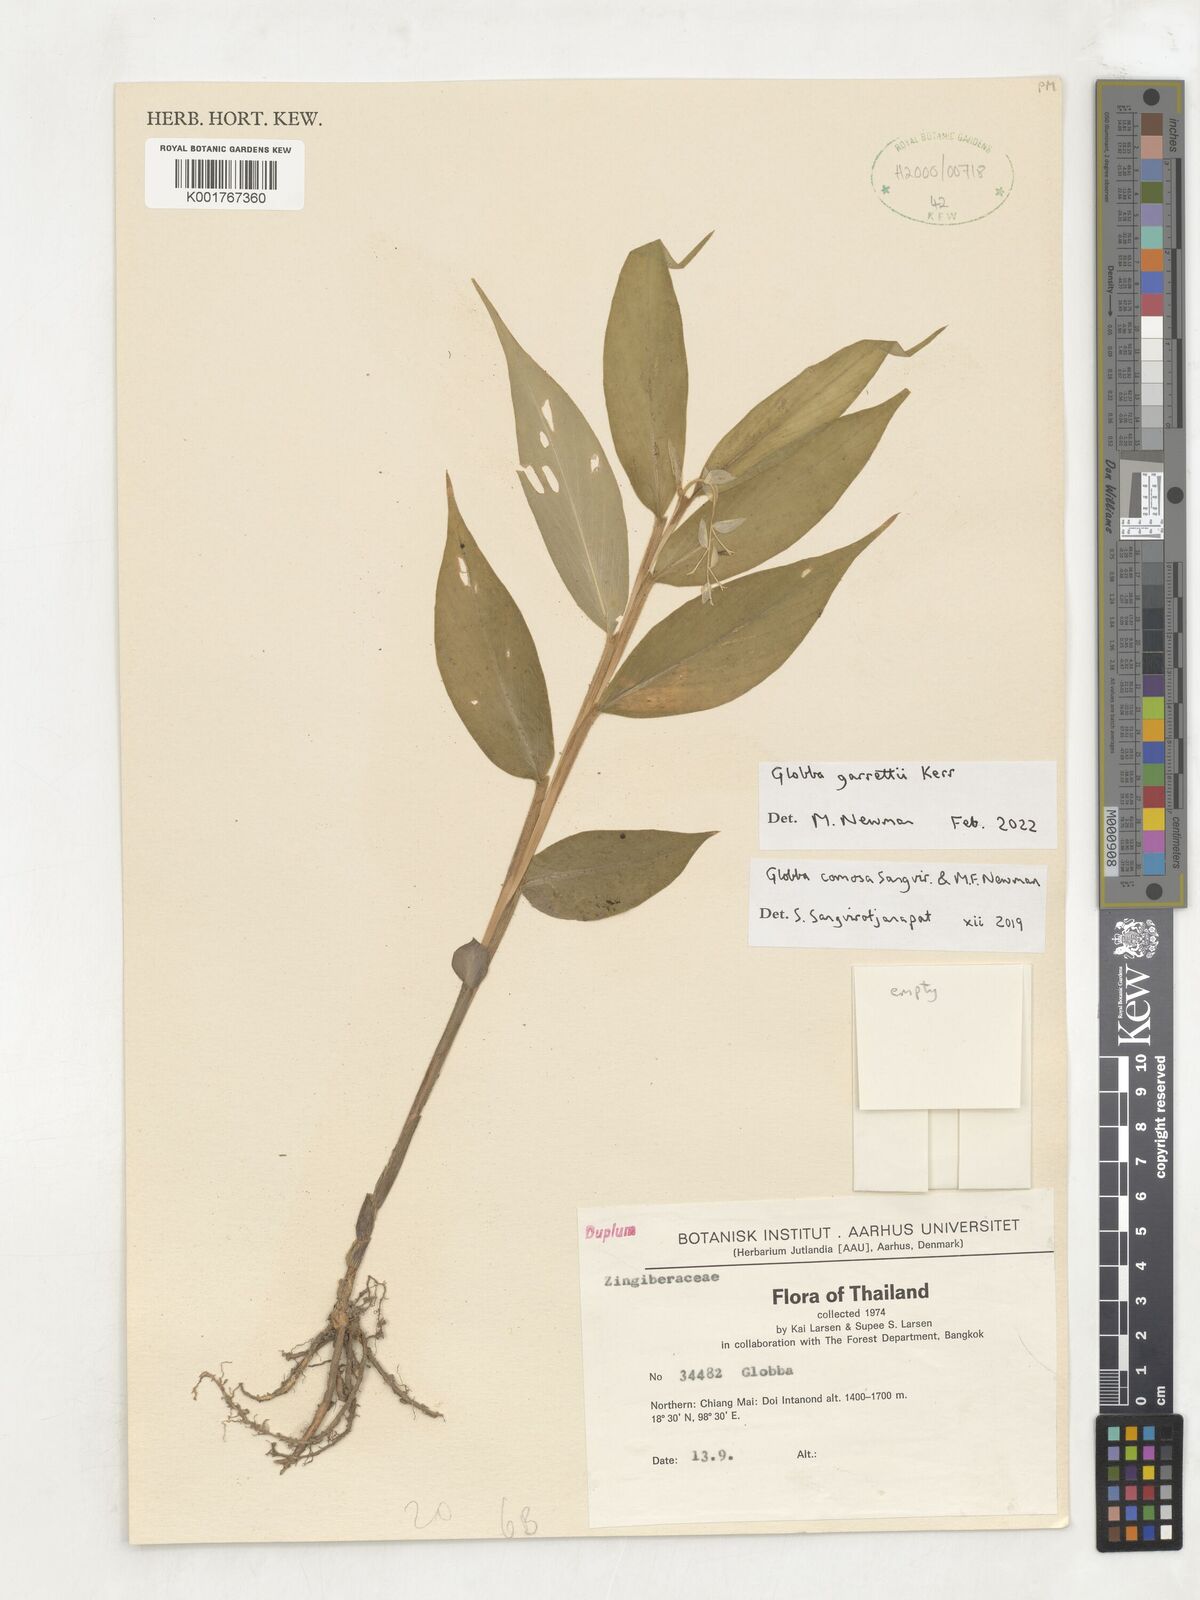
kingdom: Plantae
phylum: Tracheophyta
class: Liliopsida
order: Zingiberales
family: Zingiberaceae
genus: Globba
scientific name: Globba garrettii
